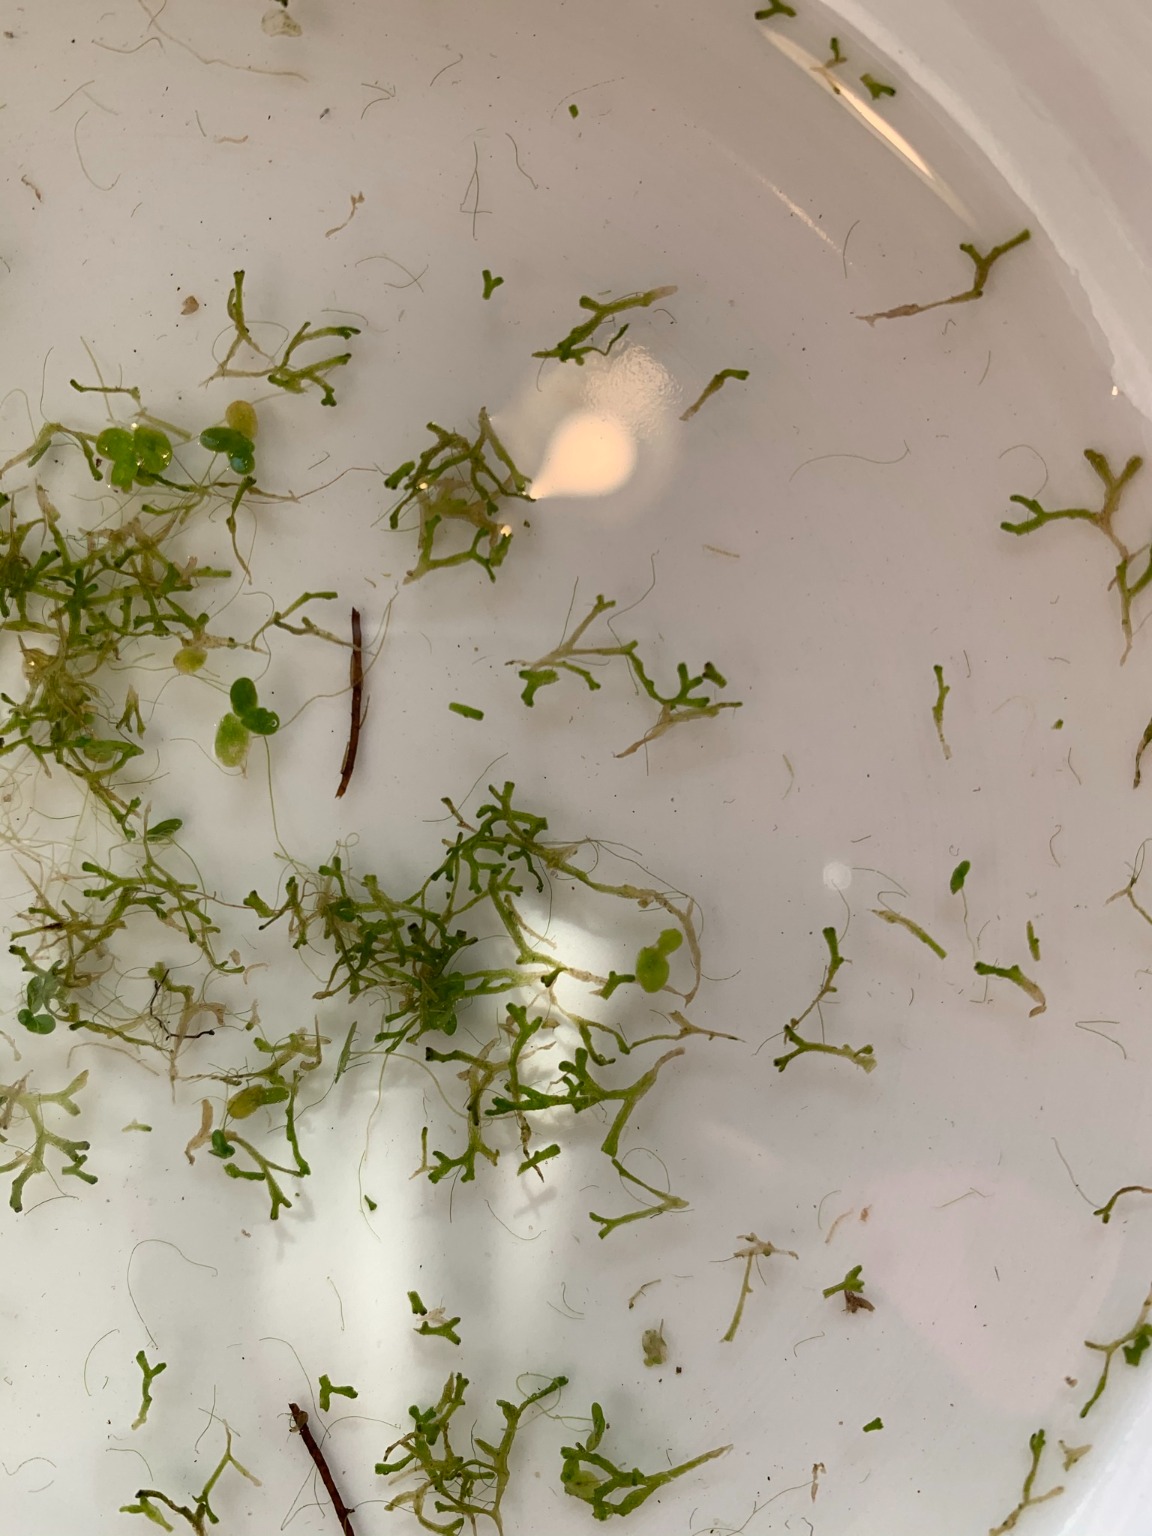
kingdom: Plantae
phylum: Marchantiophyta
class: Marchantiopsida
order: Marchantiales
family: Ricciaceae
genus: Riccia
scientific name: Riccia fluitans
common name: Svømmende stjerneløv
